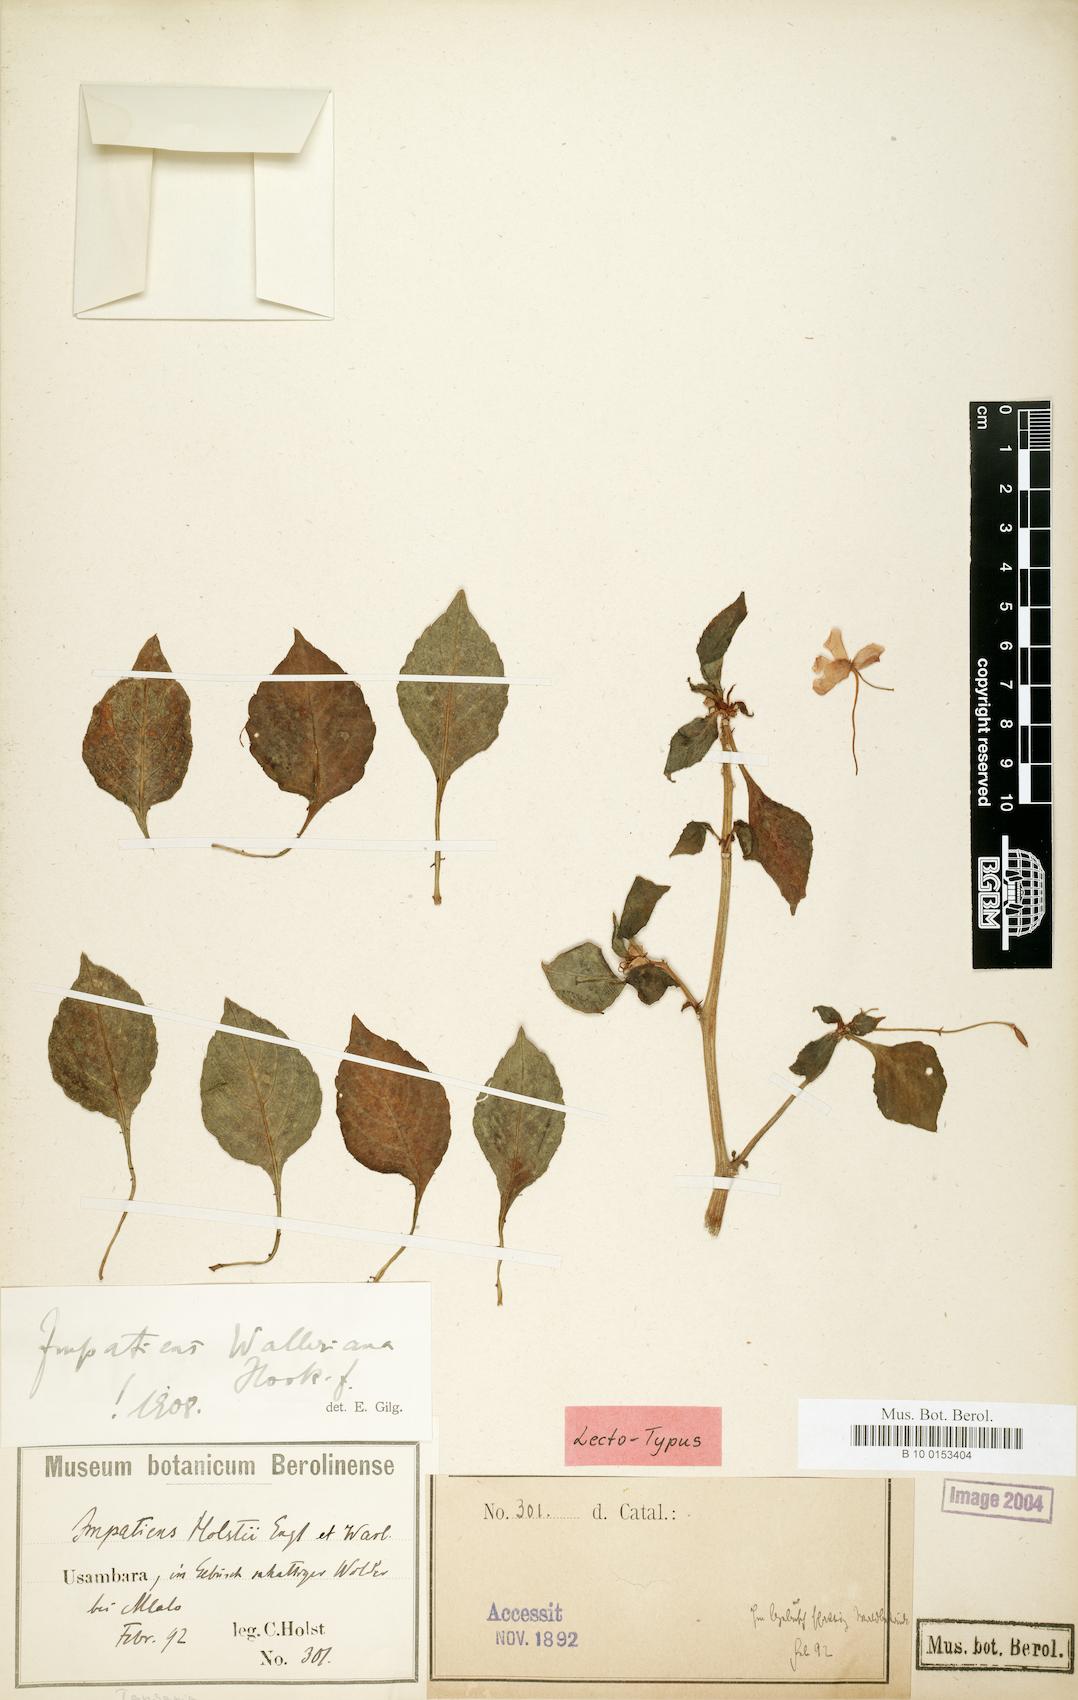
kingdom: Plantae
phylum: Tracheophyta
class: Magnoliopsida
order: Ericales
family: Balsaminaceae
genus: Impatiens
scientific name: Impatiens walleriana
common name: Buzzy lizzy
